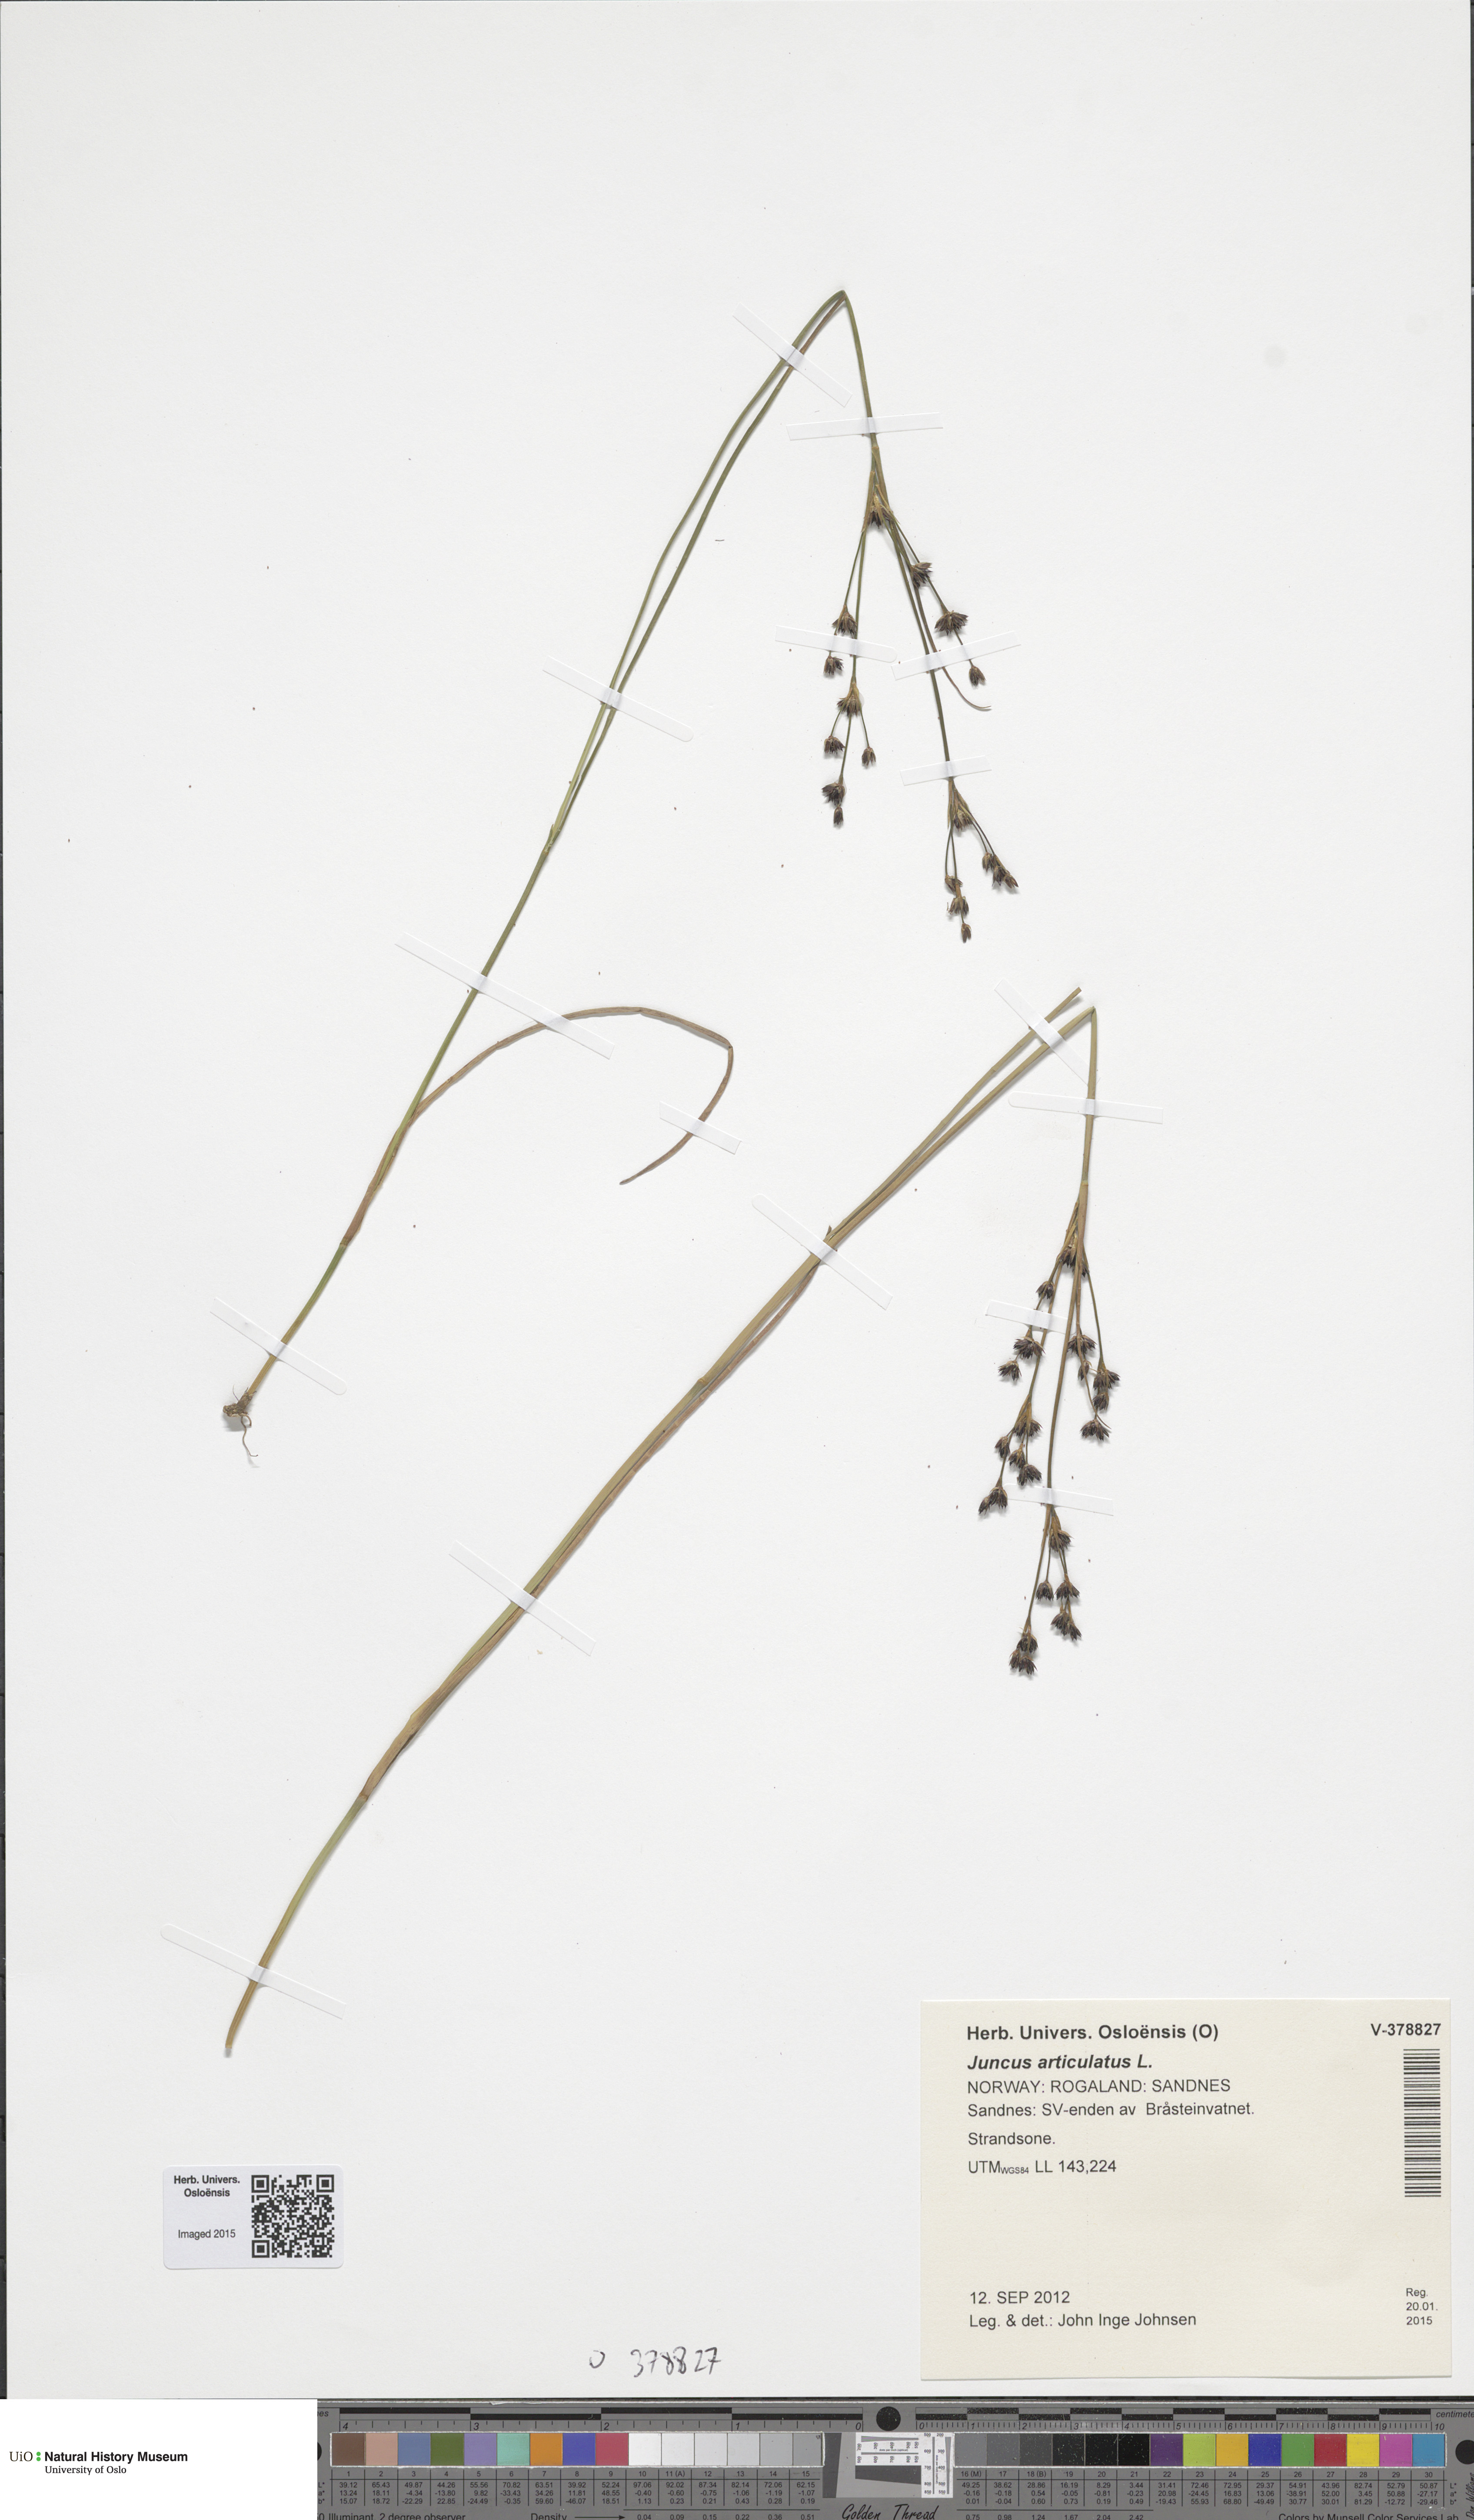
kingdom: Plantae
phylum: Tracheophyta
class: Liliopsida
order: Poales
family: Juncaceae
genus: Juncus
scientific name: Juncus articulatus
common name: Jointed rush
